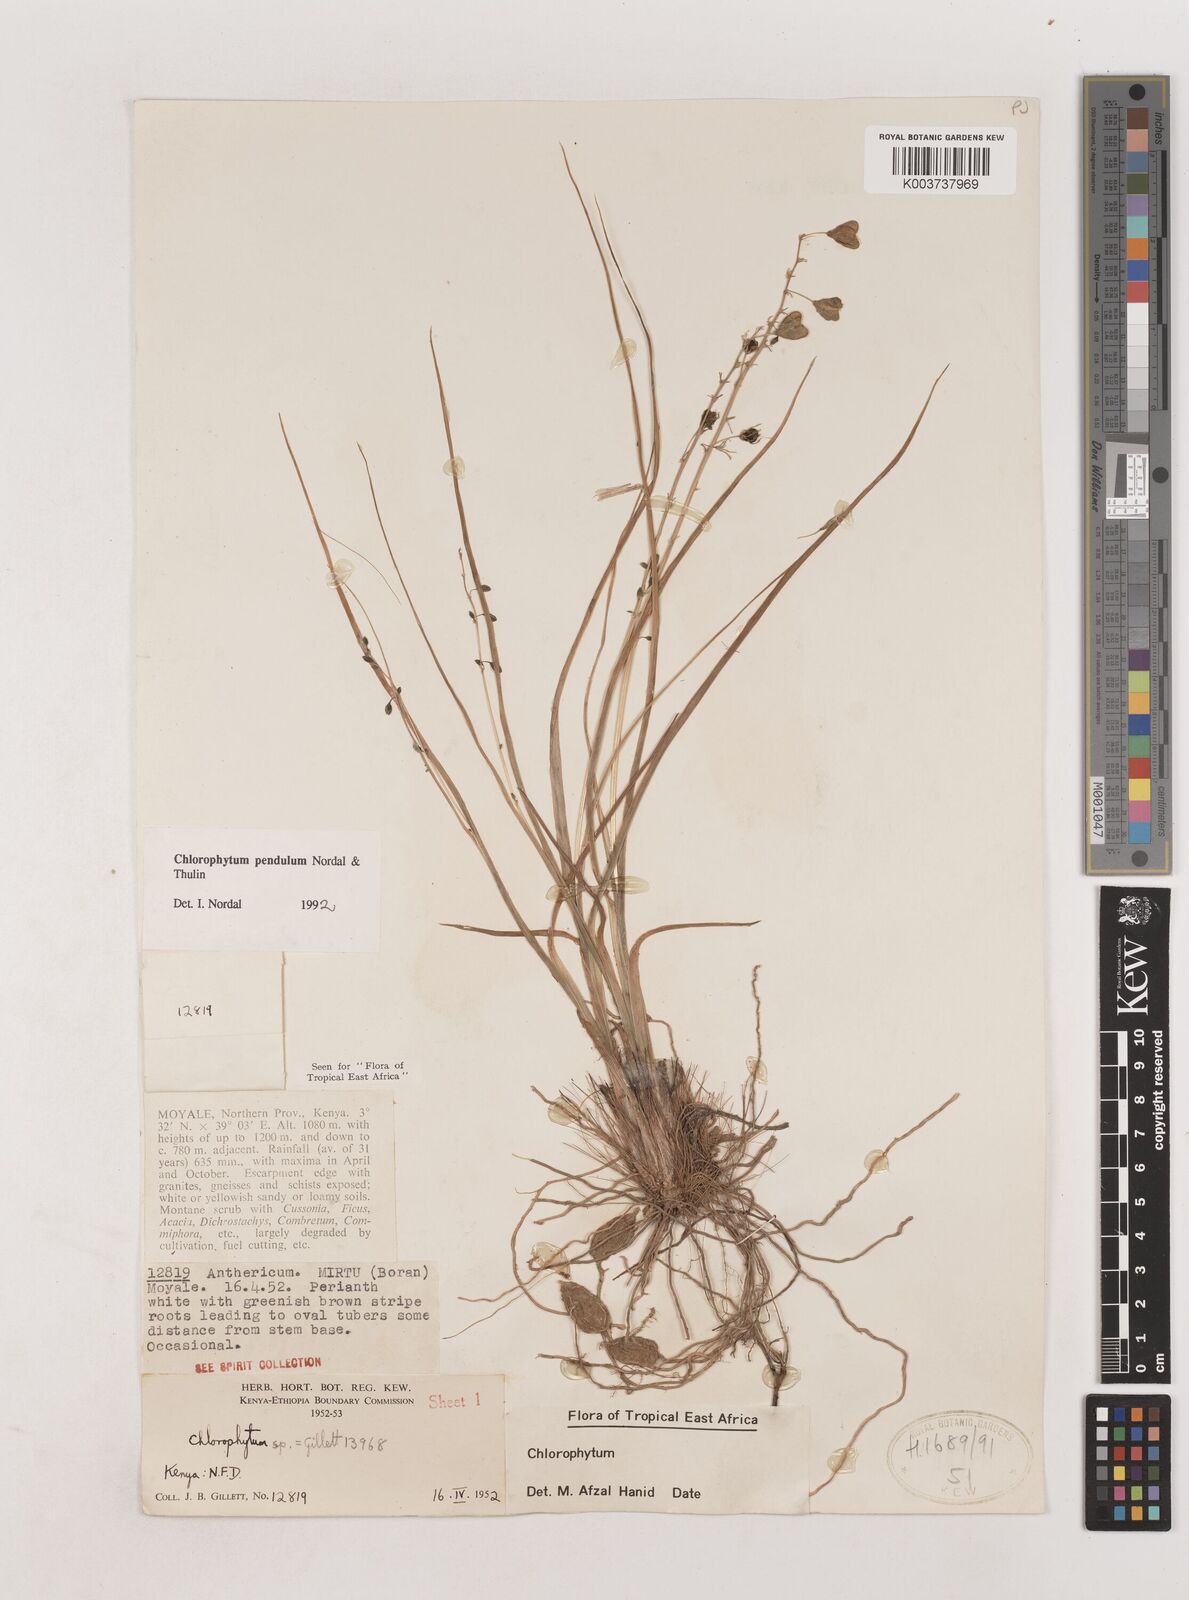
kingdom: Plantae
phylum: Tracheophyta
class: Liliopsida
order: Asparagales
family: Asparagaceae
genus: Chlorophytum
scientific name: Chlorophytum pendulum
